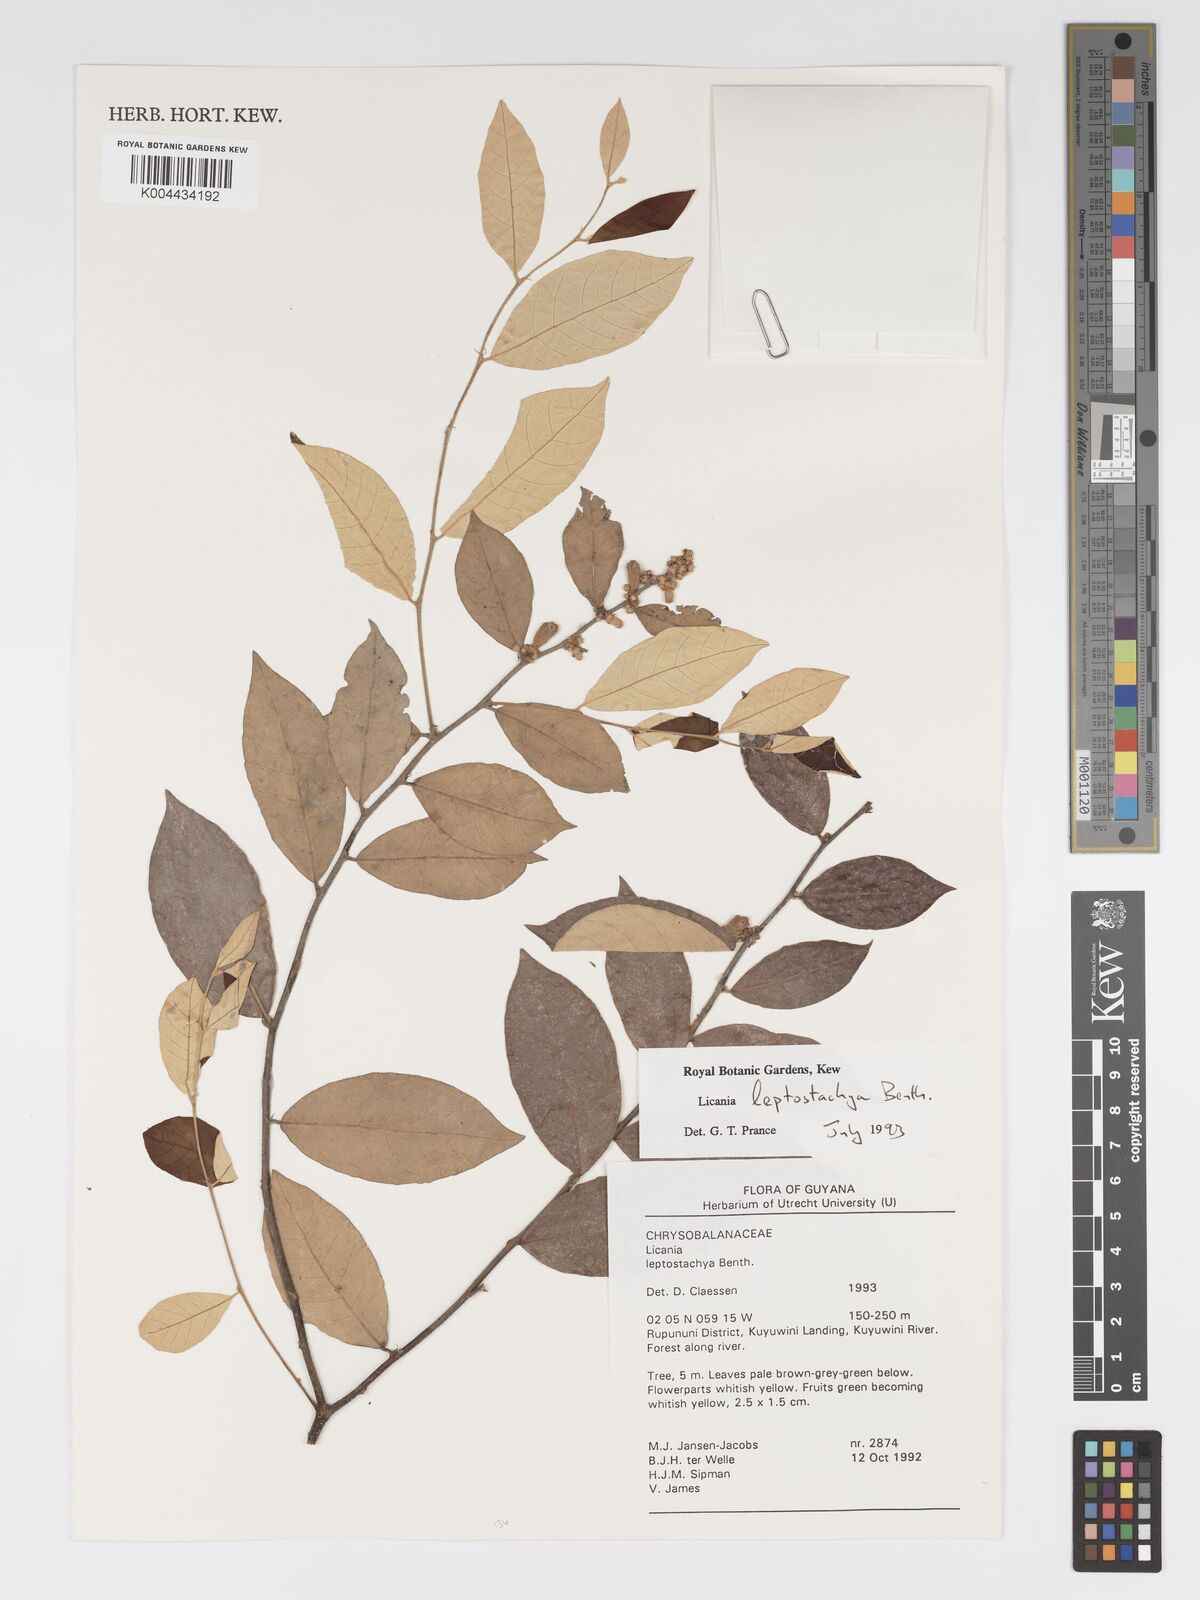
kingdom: Plantae
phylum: Tracheophyta
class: Magnoliopsida
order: Malpighiales
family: Chrysobalanaceae
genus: Licania
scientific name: Licania leptostachya
